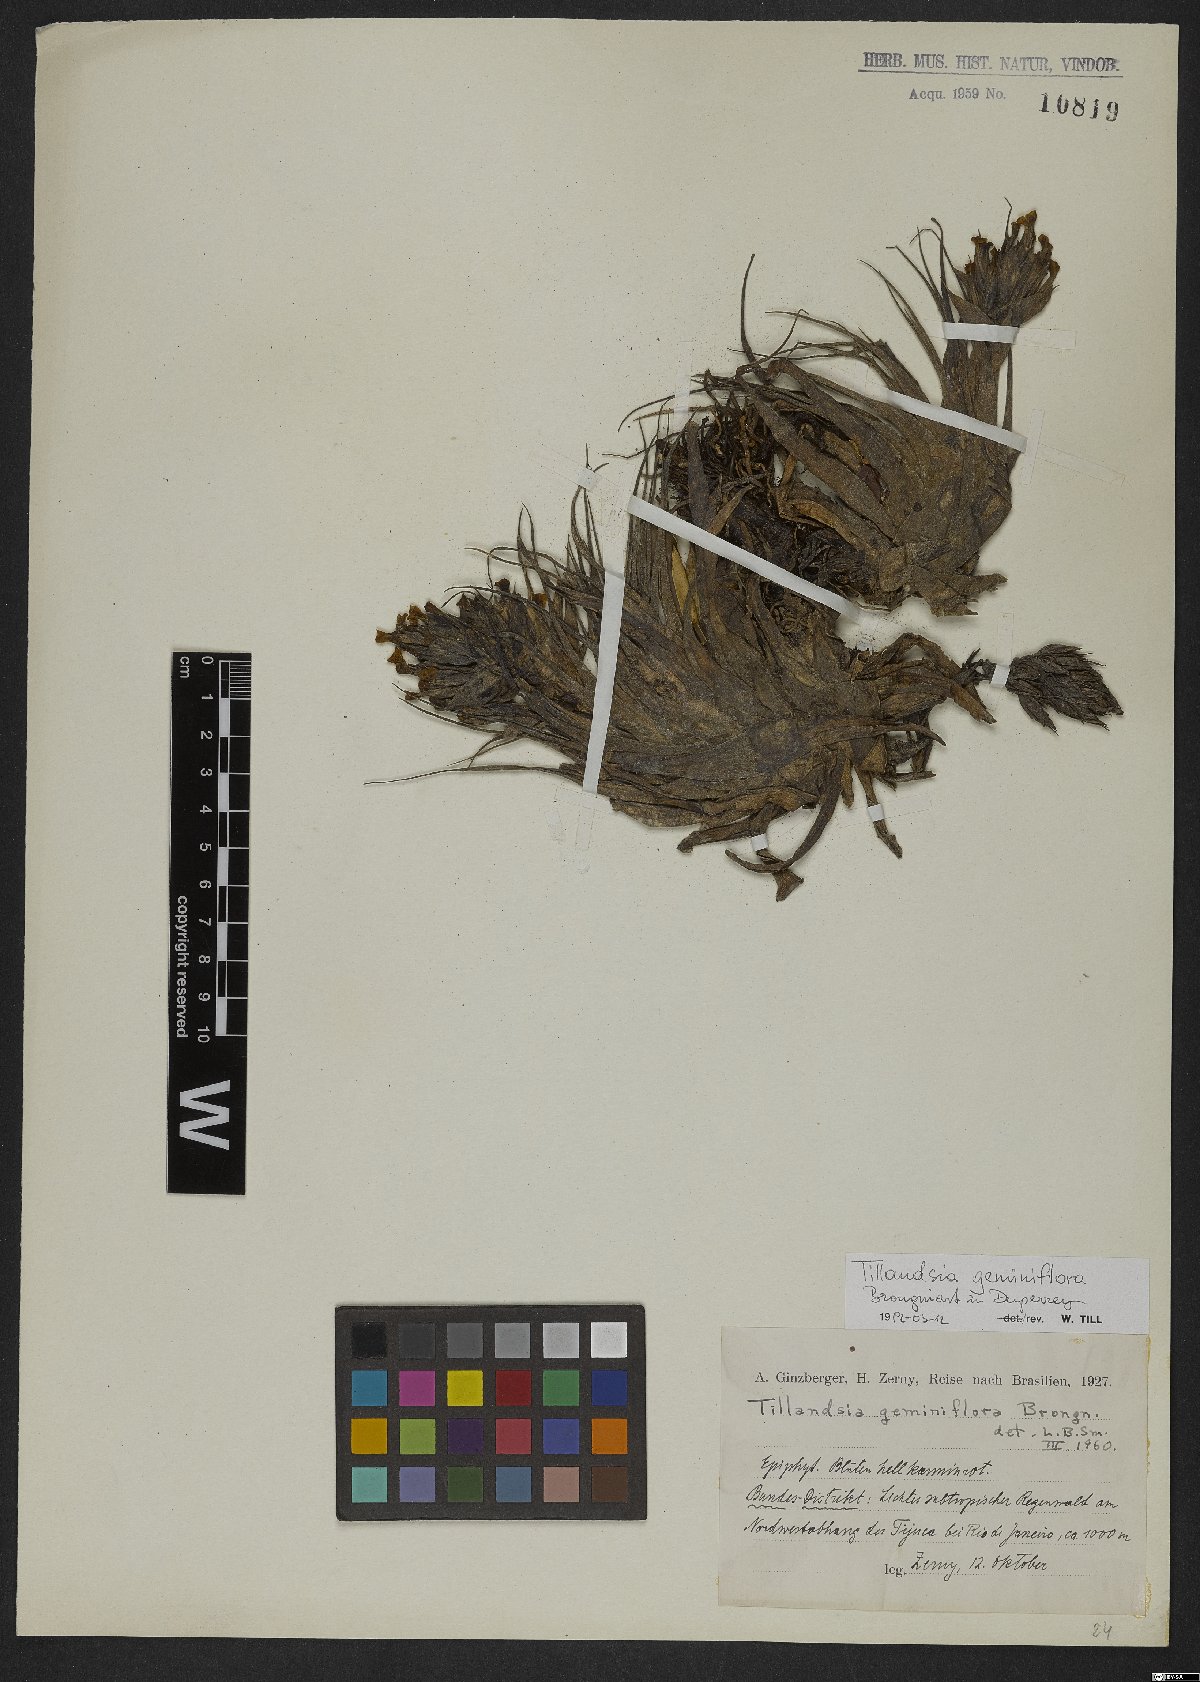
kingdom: Plantae
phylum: Tracheophyta
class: Liliopsida
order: Poales
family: Bromeliaceae
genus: Tillandsia
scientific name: Tillandsia geminiflora
